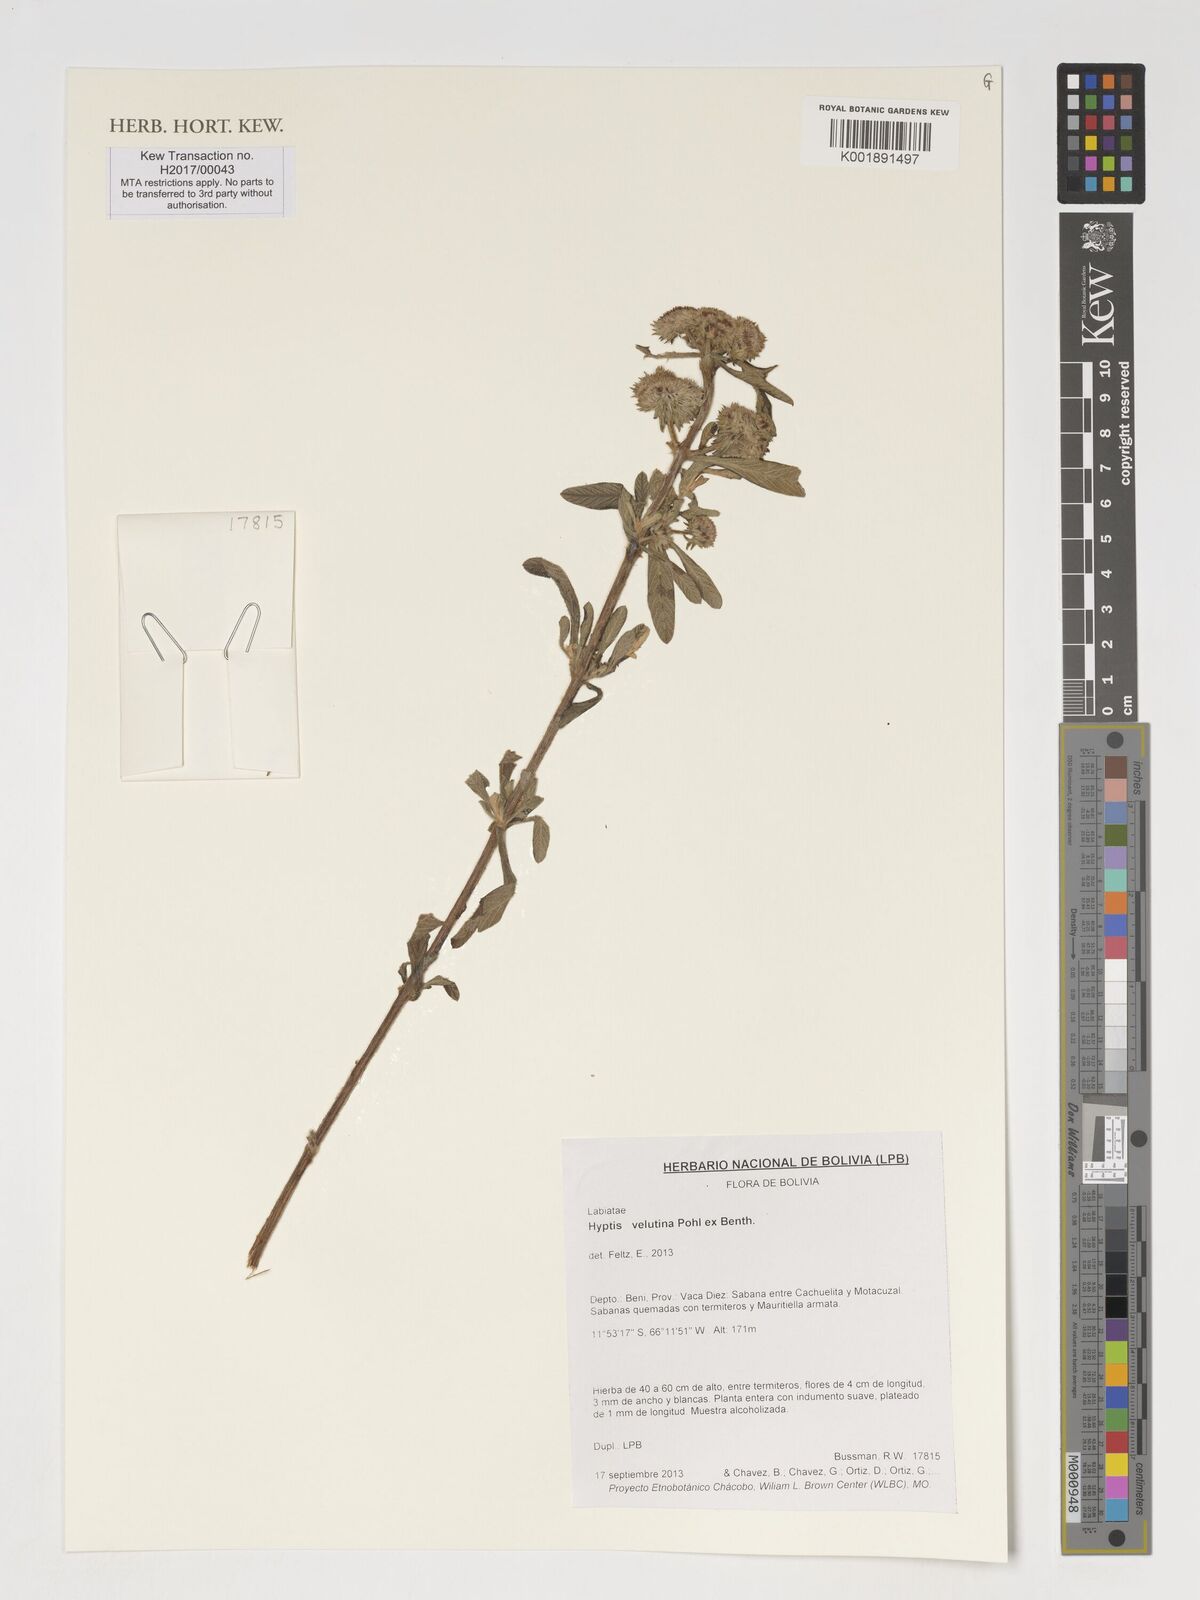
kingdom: Plantae
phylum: Tracheophyta
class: Magnoliopsida
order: Lamiales
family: Lamiaceae
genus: Hyptis
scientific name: Hyptis velutina
